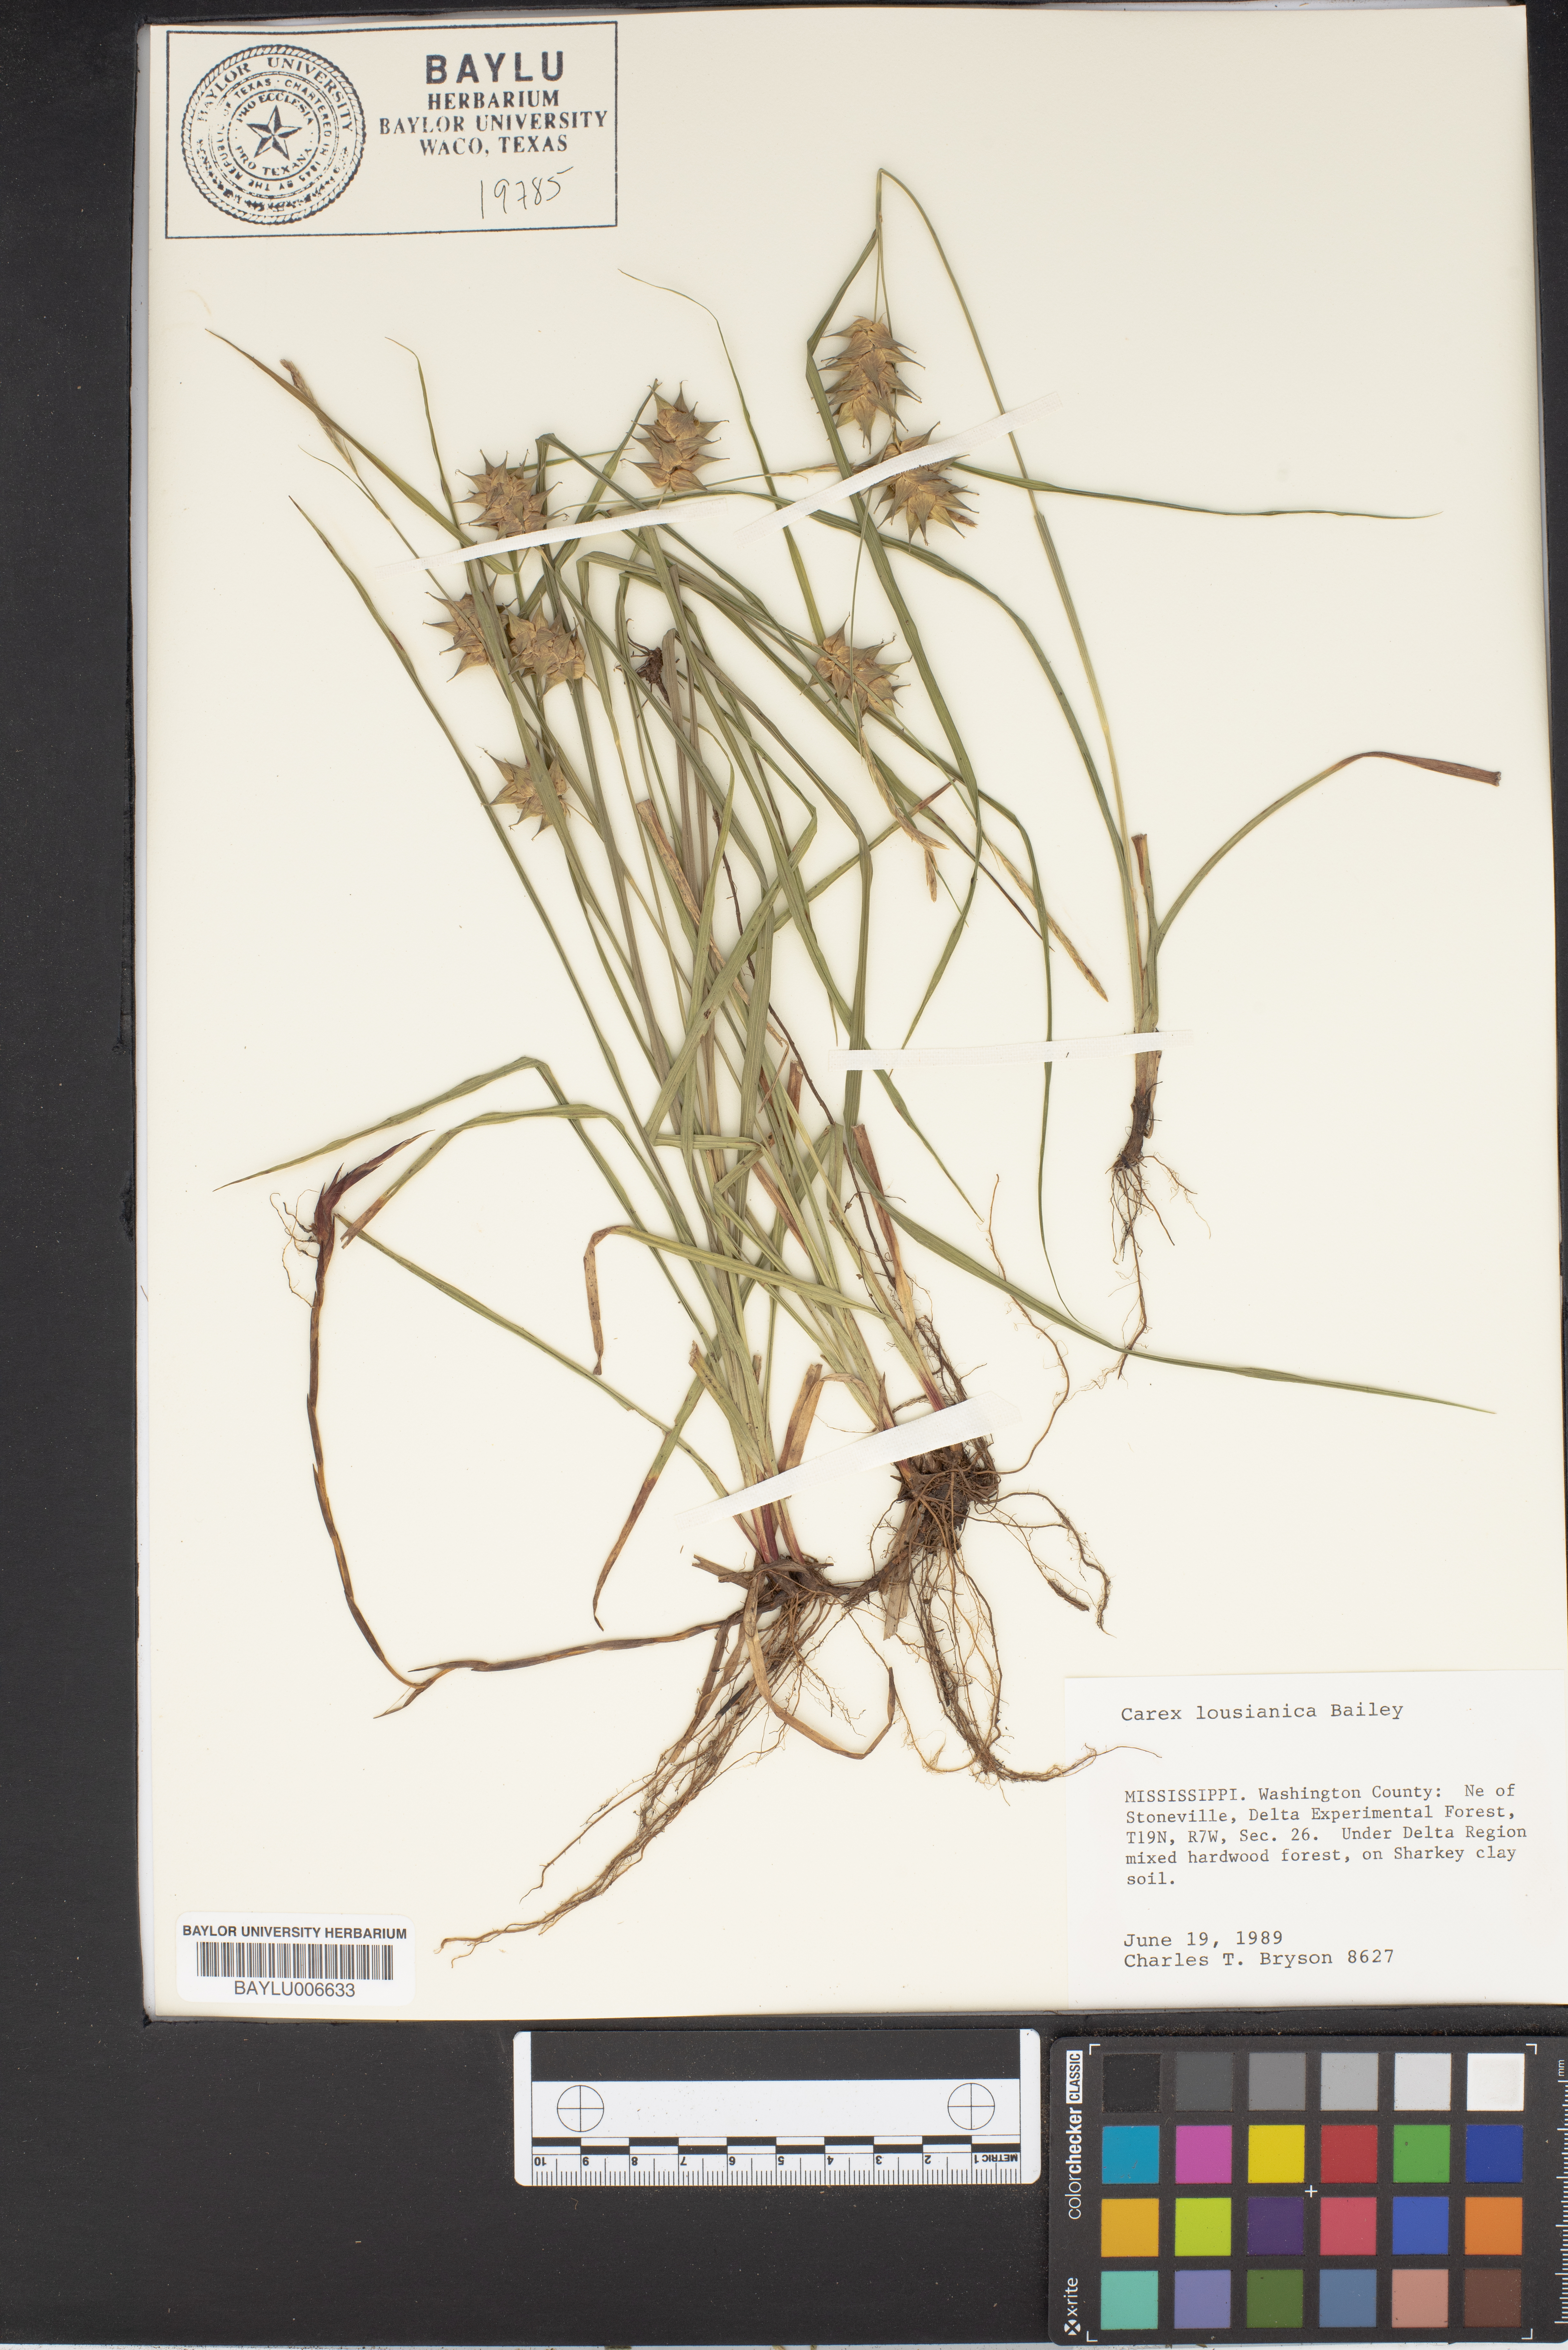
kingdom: Plantae
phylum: Tracheophyta
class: Liliopsida
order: Poales
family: Cyperaceae
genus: Carex
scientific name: Carex louisianica
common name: Louisiana sedge
